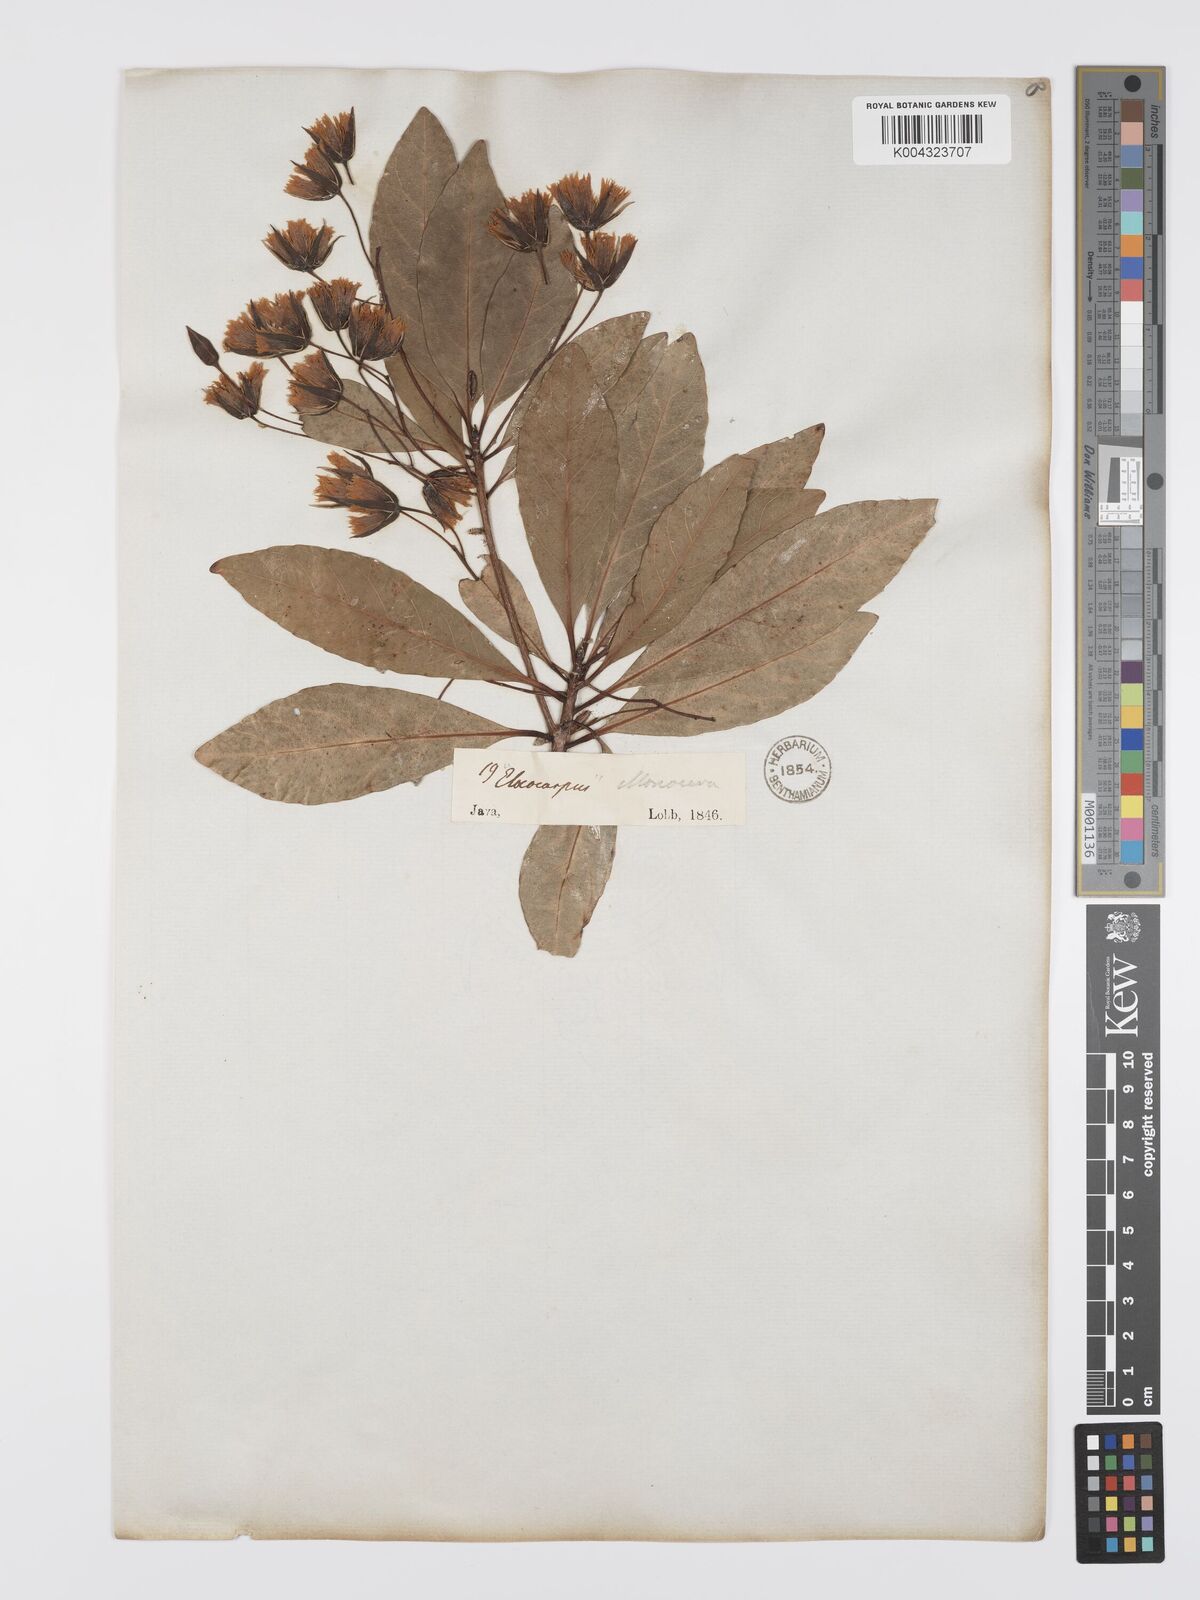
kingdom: Plantae
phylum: Tracheophyta
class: Magnoliopsida
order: Oxalidales
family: Elaeocarpaceae
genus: Elaeocarpus
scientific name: Elaeocarpus grandiflorus
